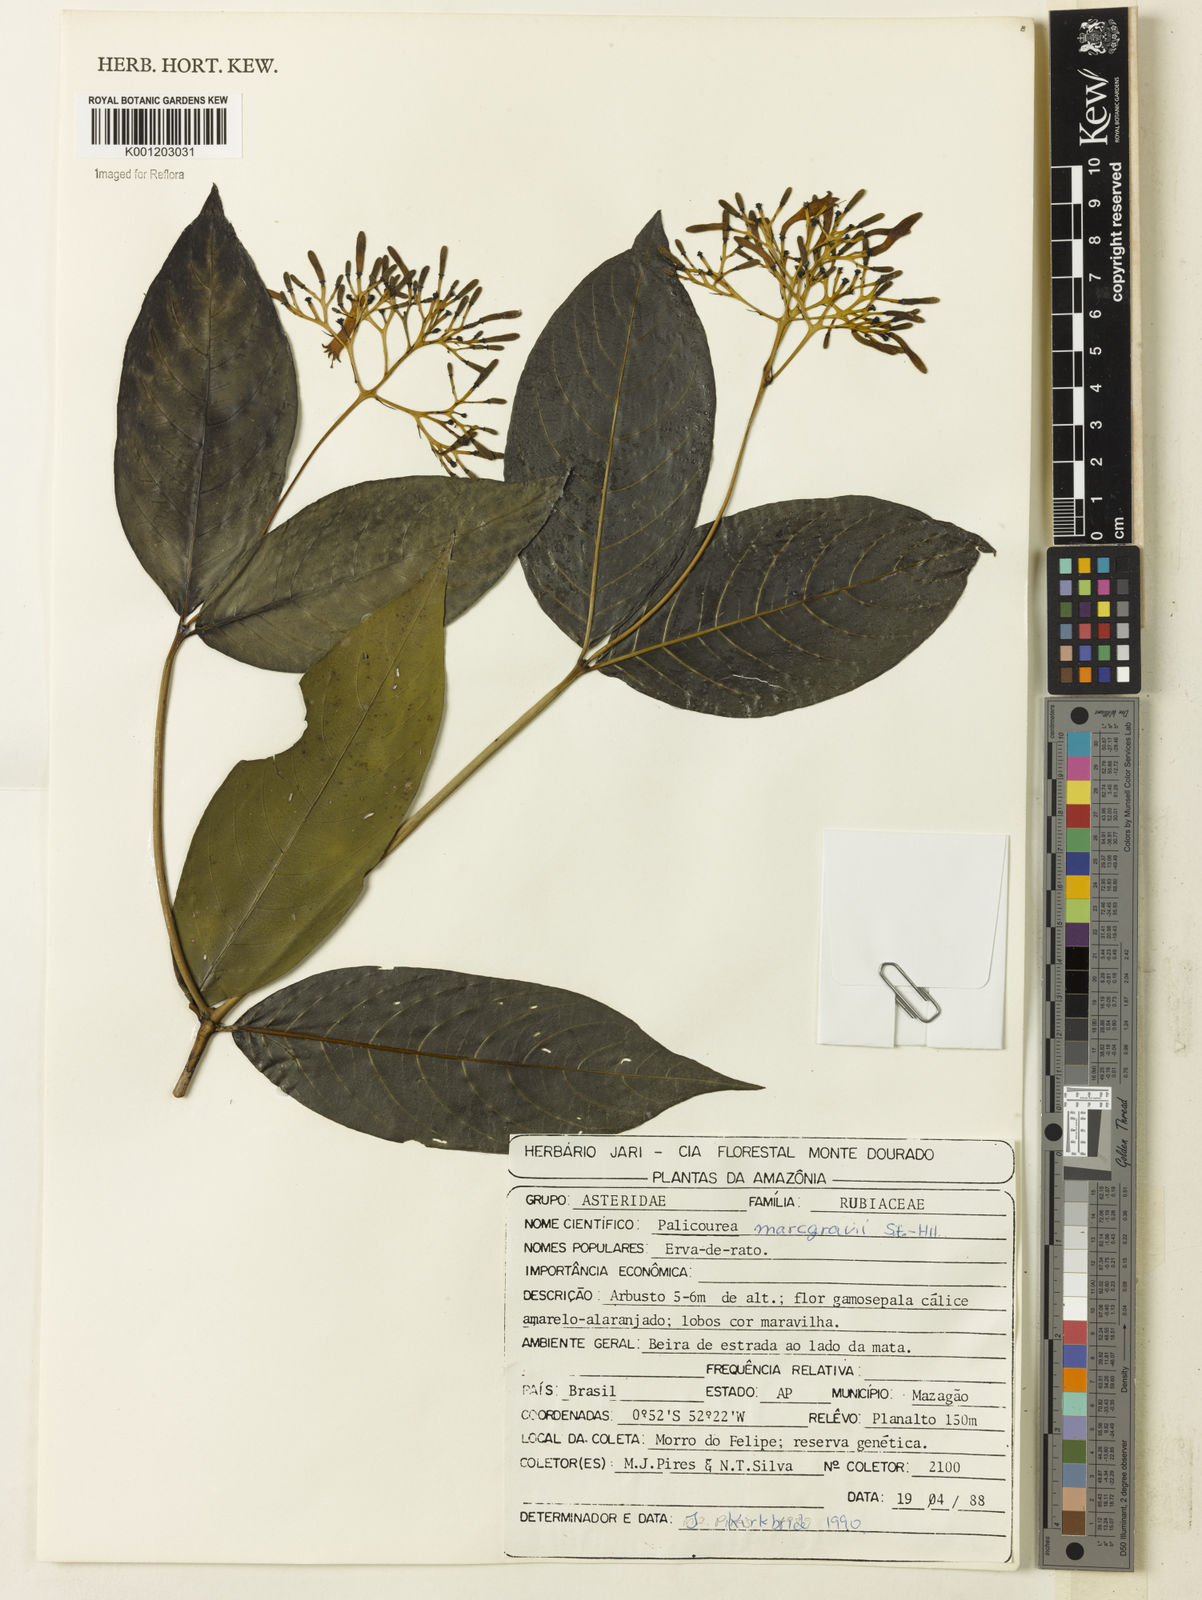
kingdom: Plantae
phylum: Tracheophyta
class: Magnoliopsida
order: Gentianales
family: Rubiaceae
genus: Palicourea
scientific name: Palicourea marcgravii
